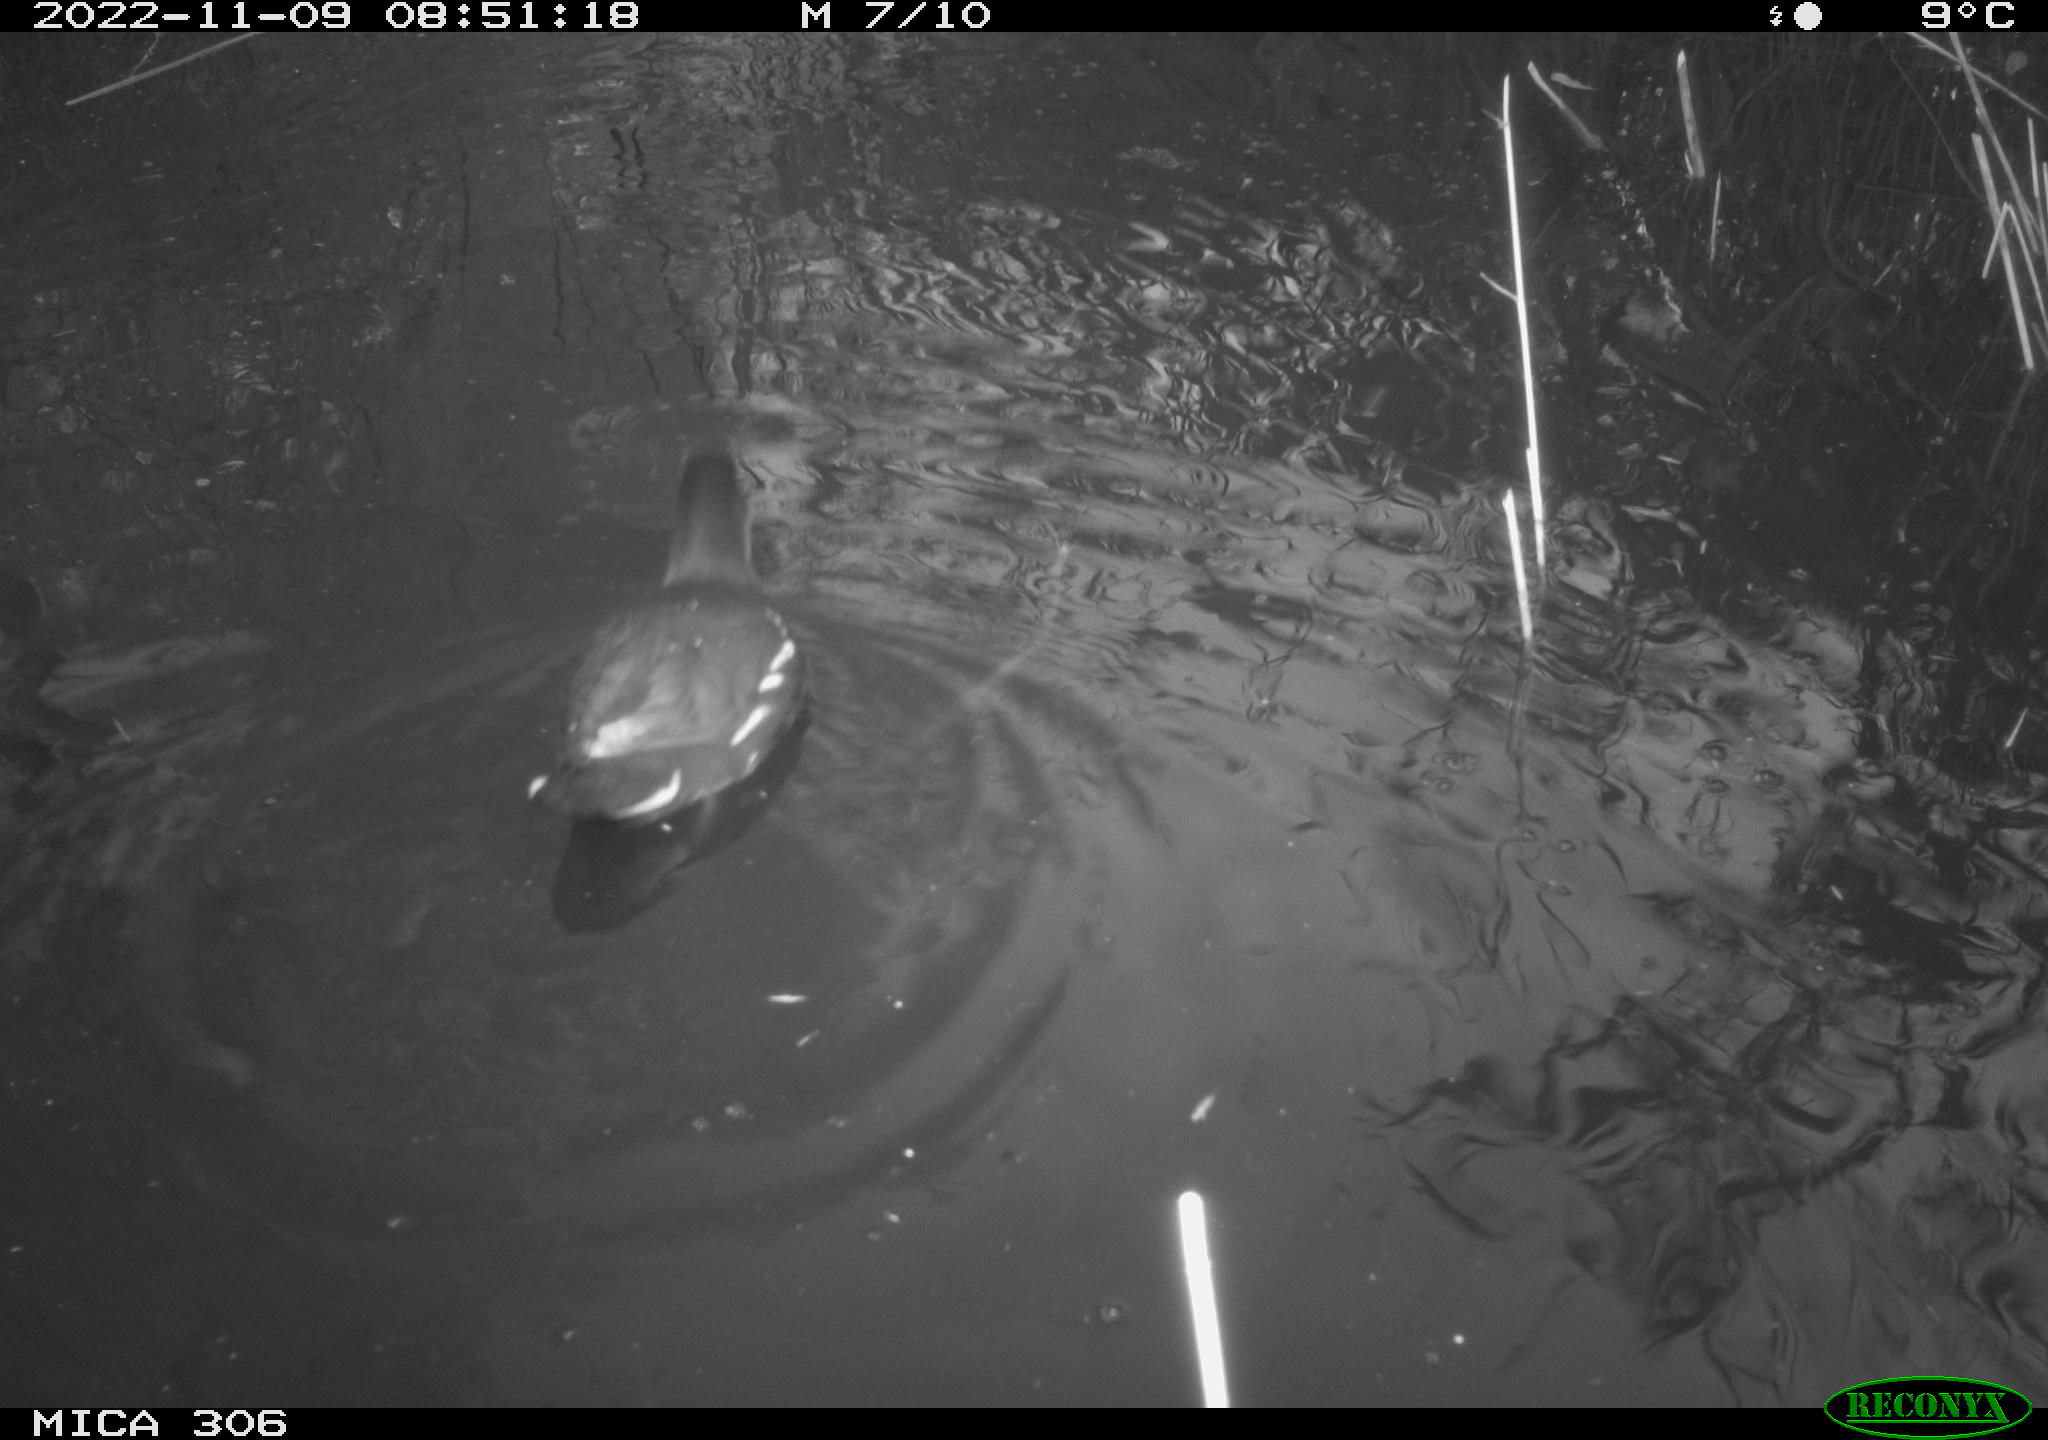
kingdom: Animalia
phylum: Chordata
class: Aves
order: Gruiformes
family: Rallidae
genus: Gallinula
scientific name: Gallinula chloropus
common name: Common moorhen
